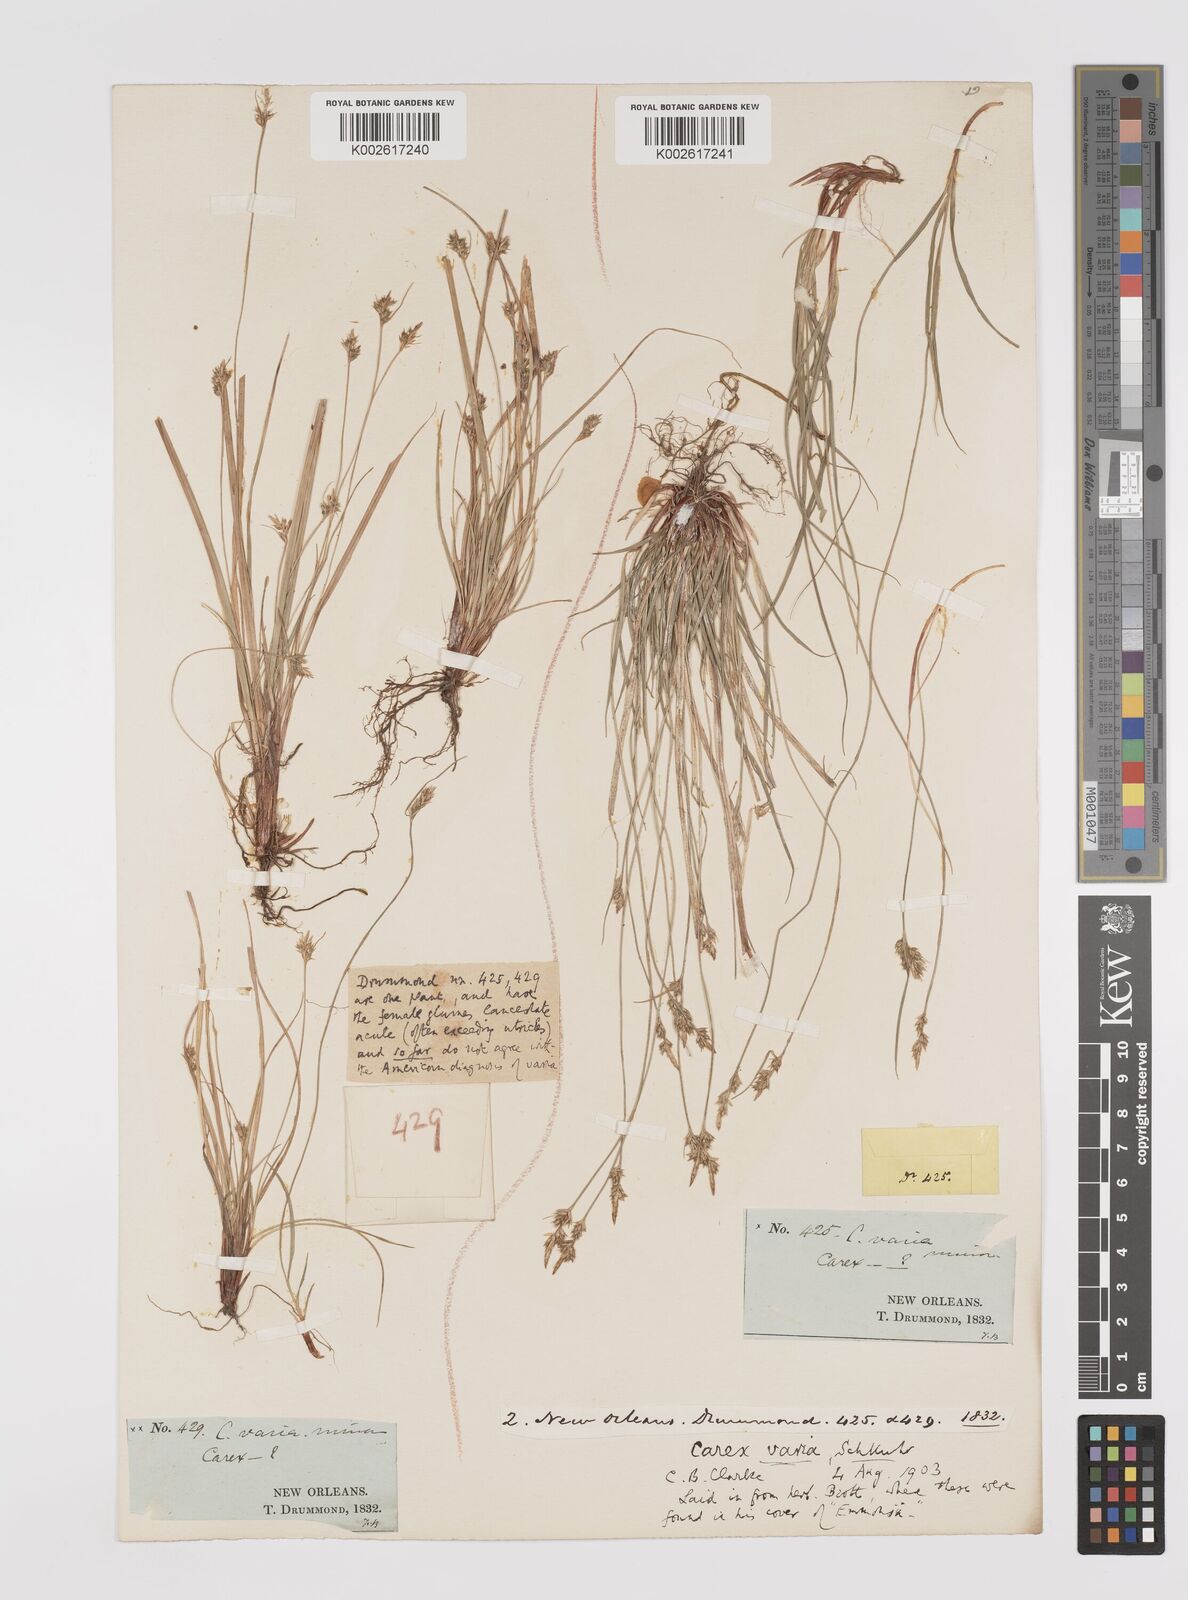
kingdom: Plantae
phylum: Tracheophyta
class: Liliopsida
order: Poales
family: Cyperaceae
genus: Carex
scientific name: Carex albicans
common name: Bellow-beaked sedge
